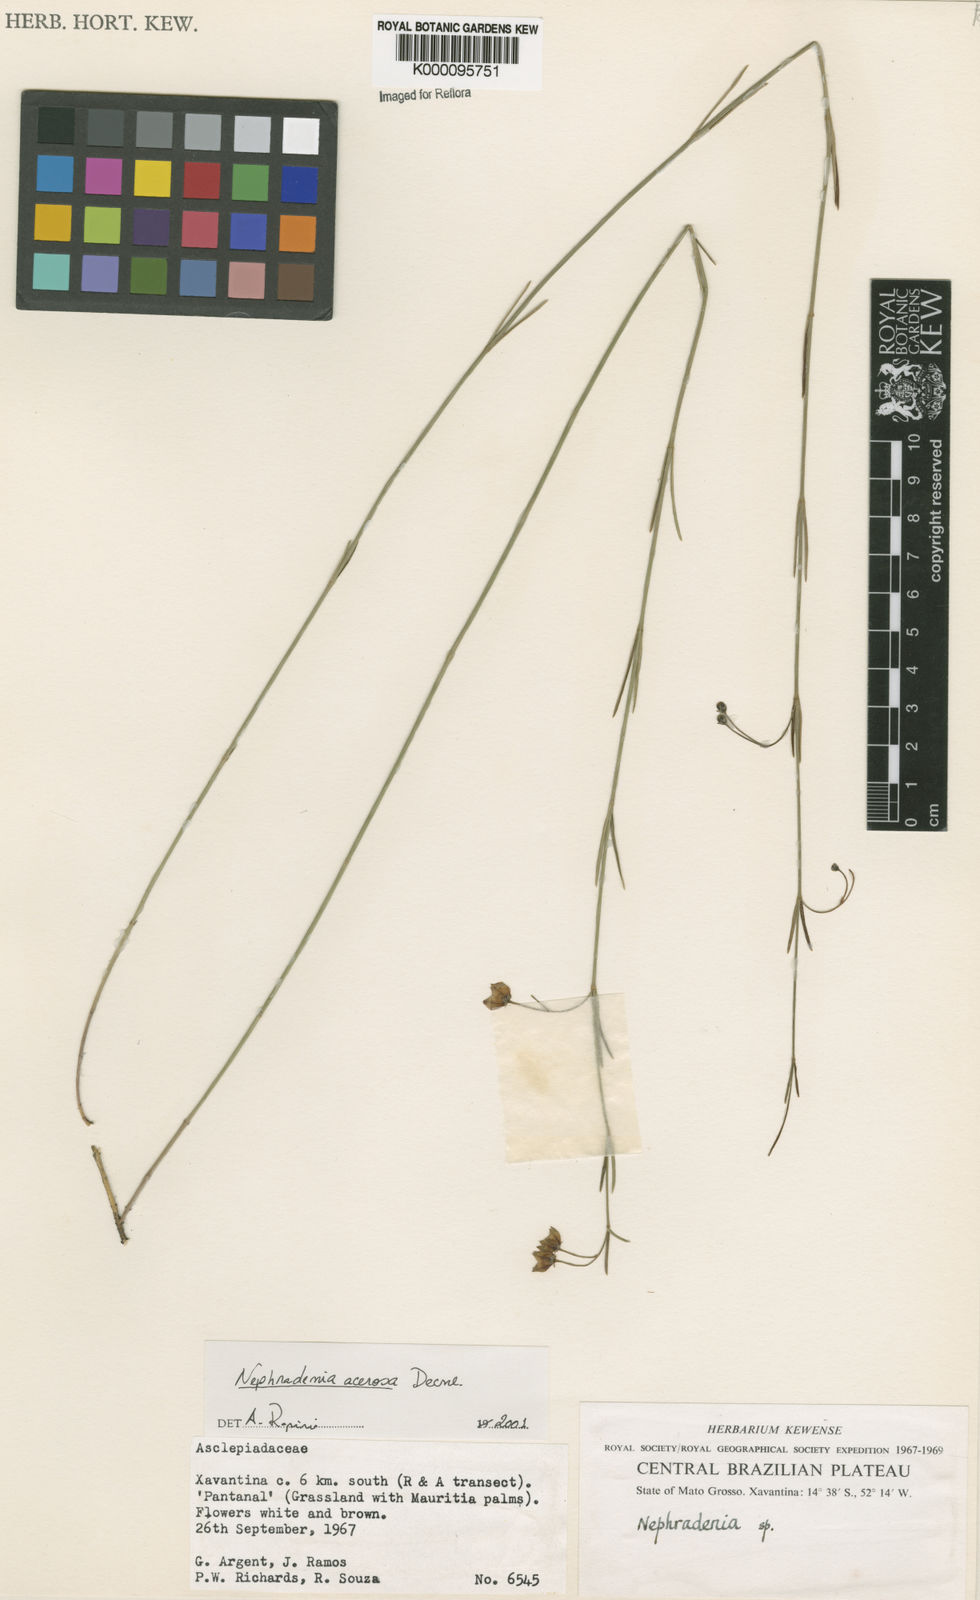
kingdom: Plantae
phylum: Tracheophyta
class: Magnoliopsida
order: Gentianales
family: Apocynaceae
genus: Nephradenia
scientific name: Nephradenia acerosa
